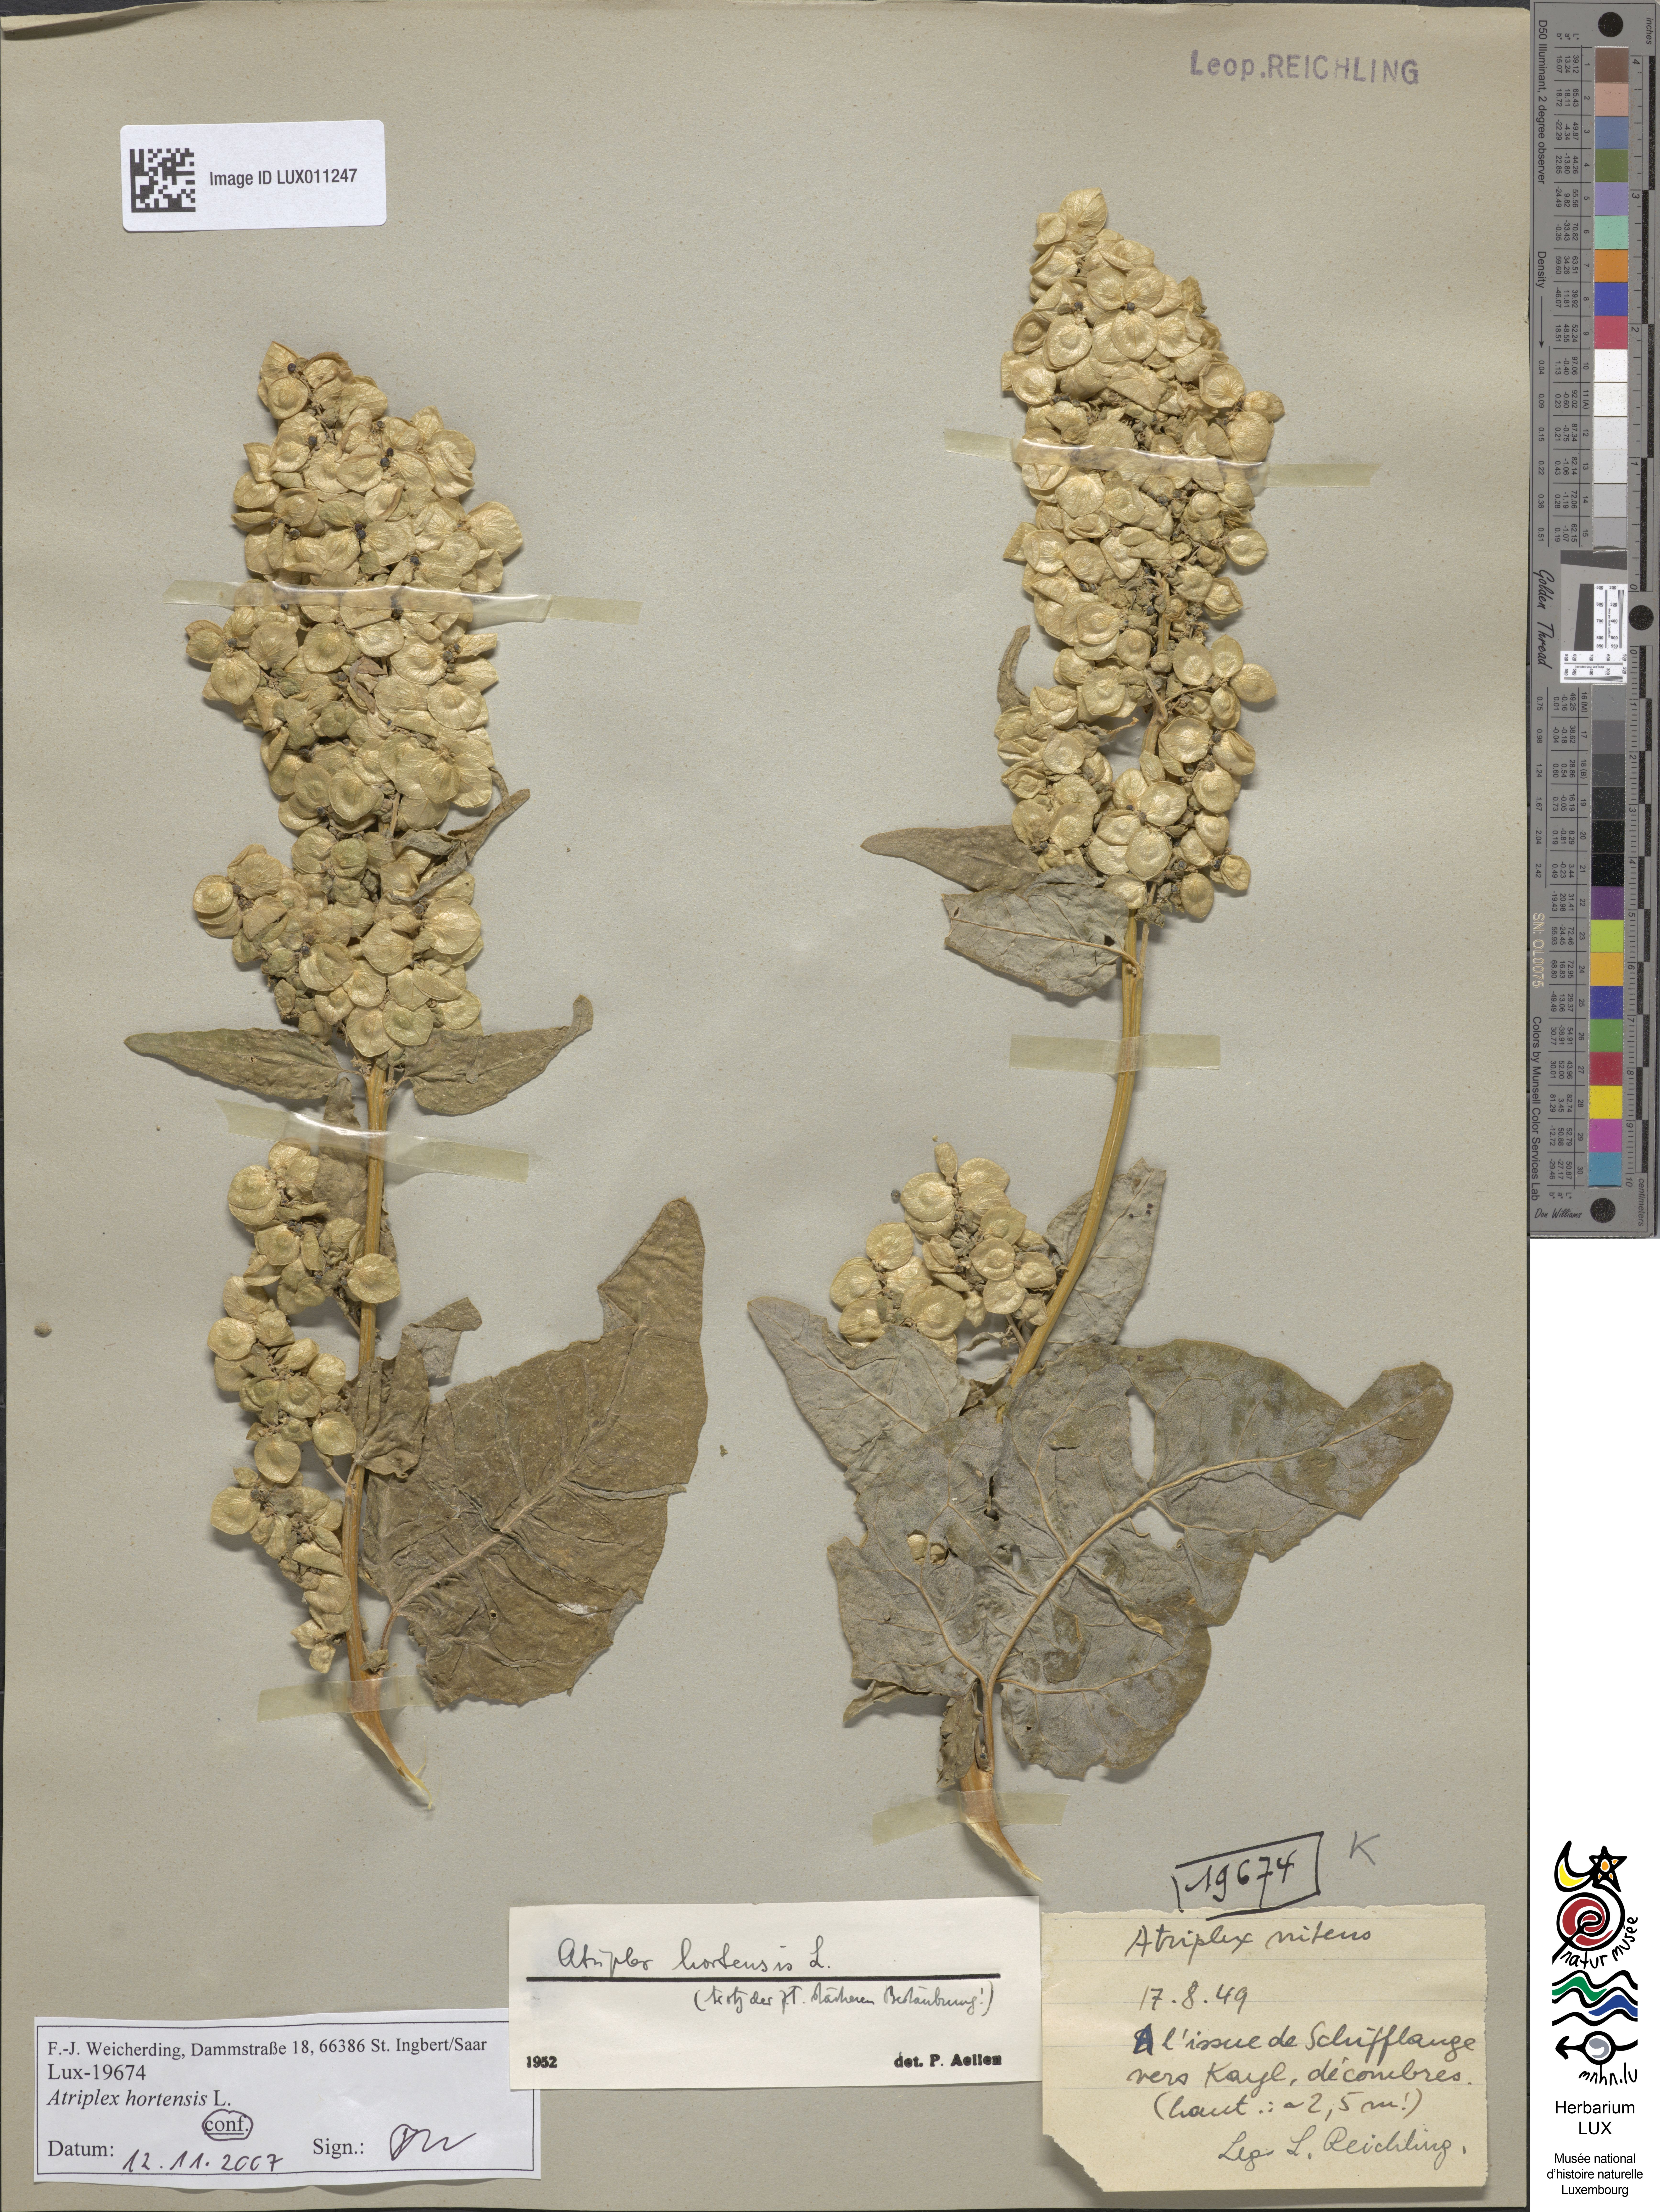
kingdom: Plantae
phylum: Tracheophyta
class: Magnoliopsida
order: Caryophyllales
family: Amaranthaceae
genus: Atriplex
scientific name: Atriplex hortensis
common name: Garden orache
